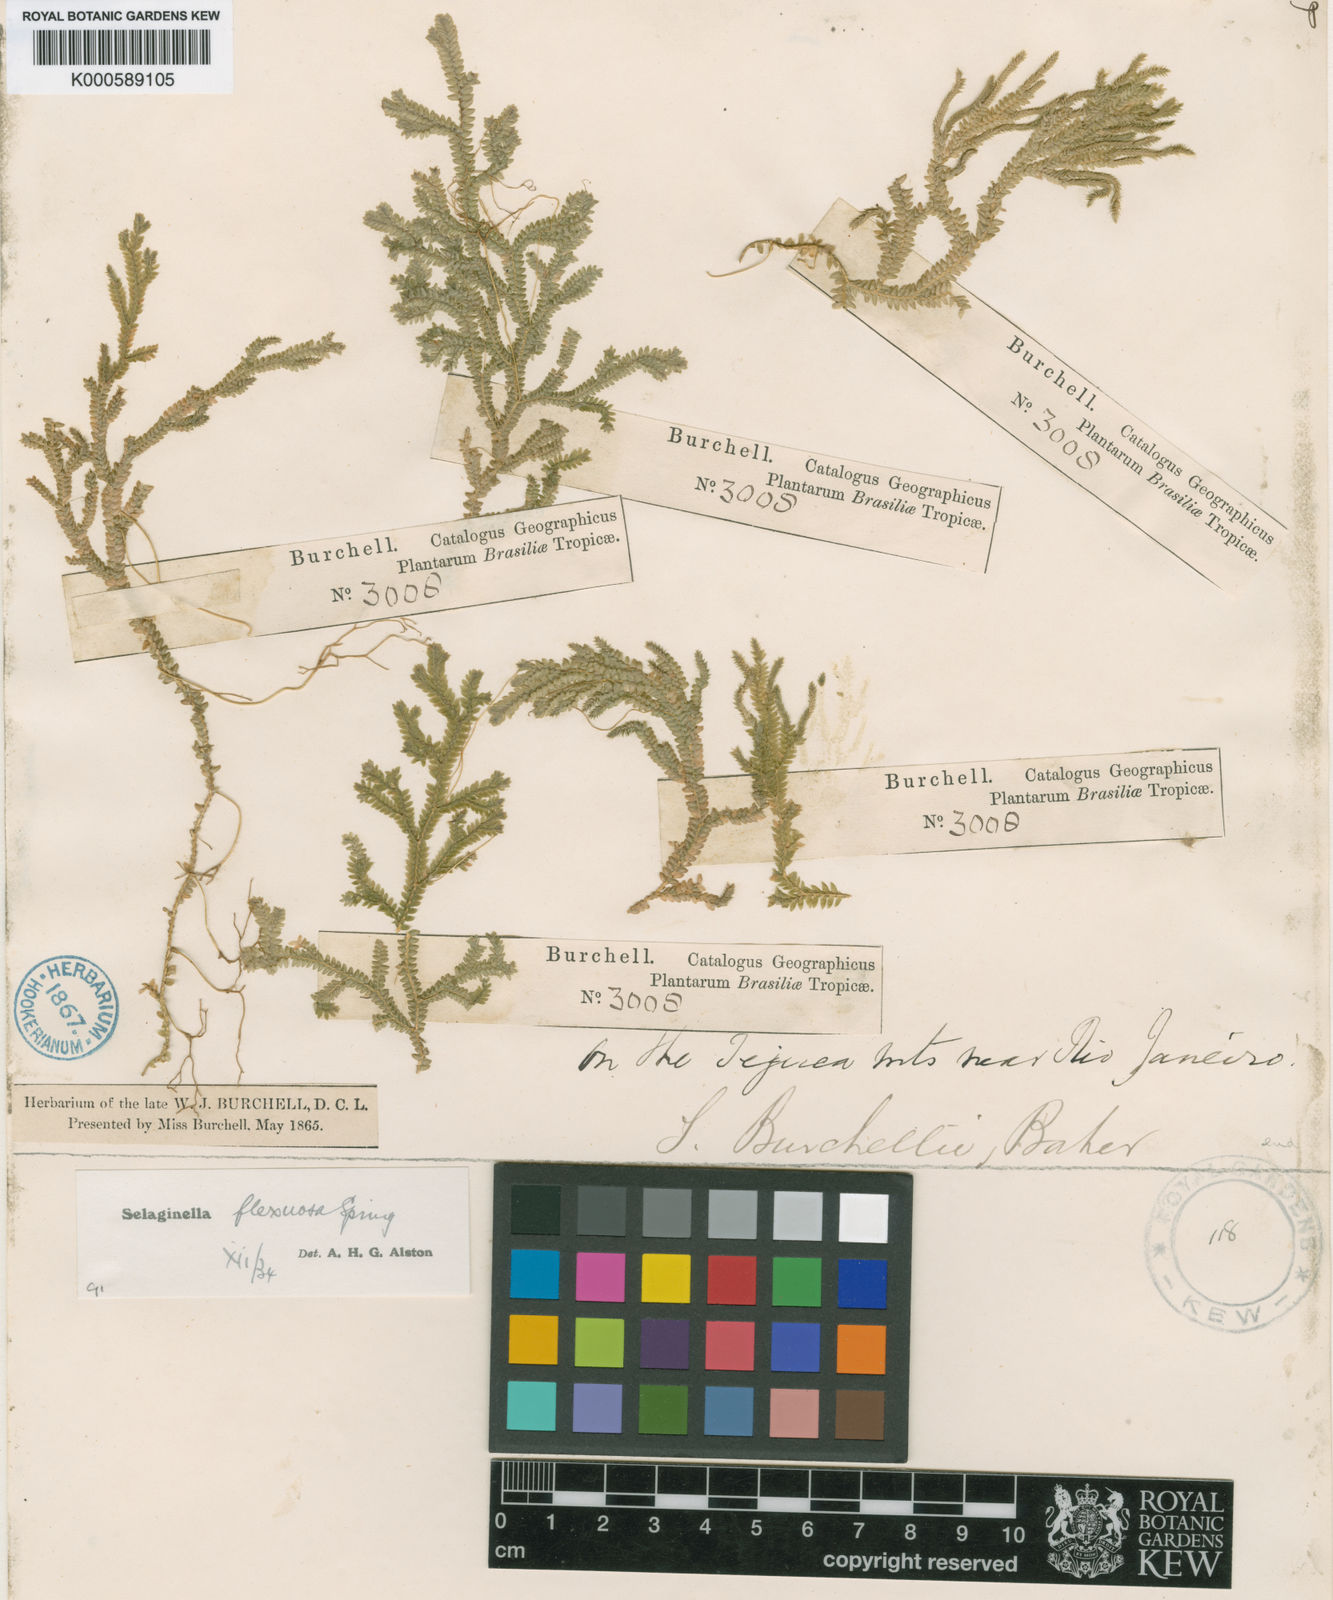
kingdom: Plantae
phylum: Tracheophyta
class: Lycopodiopsida
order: Selaginellales
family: Selaginellaceae
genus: Selaginella
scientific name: Selaginella flexuosa
